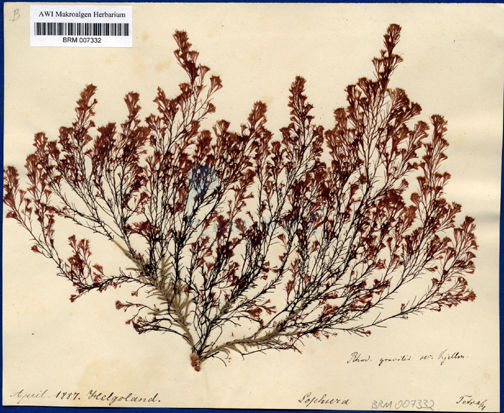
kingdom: Plantae
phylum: Rhodophyta
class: Florideophyceae
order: Ceramiales
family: Rhodomelaceae
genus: Lophura
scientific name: Lophura
